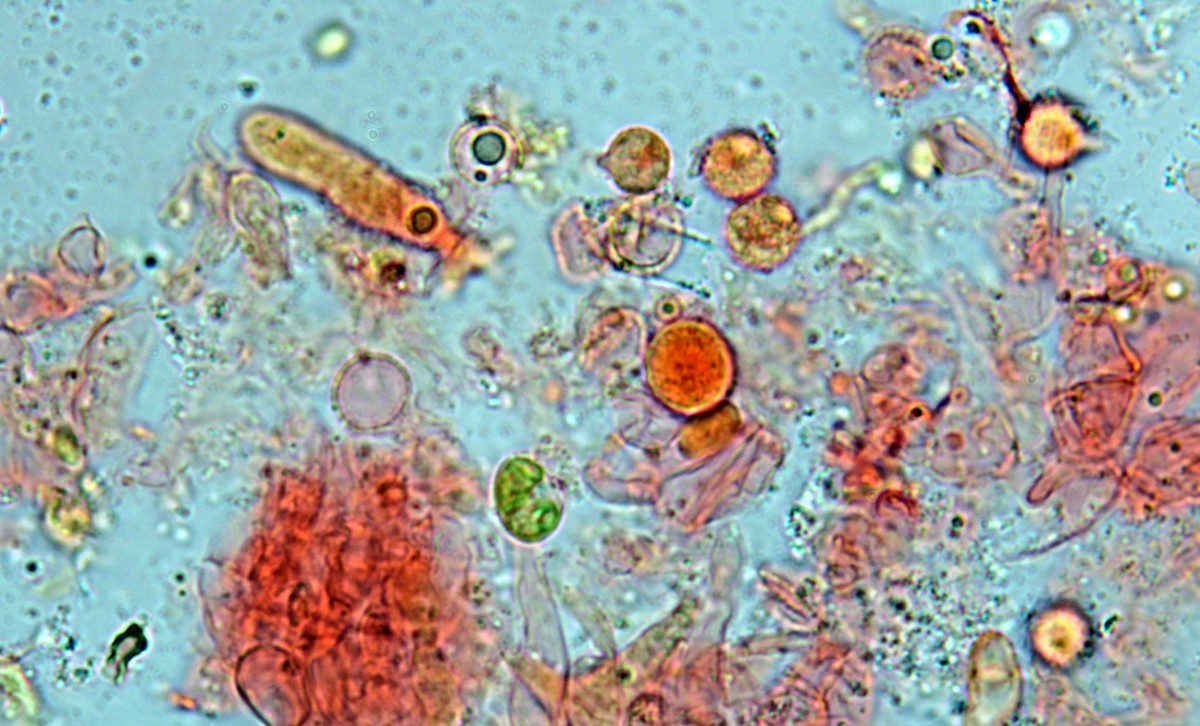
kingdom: Fungi
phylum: Basidiomycota
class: Tremellomycetes
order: Tremellales
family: Exidiaceae
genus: Basidiodendron
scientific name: Basidiodendron
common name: rækkebævresvamp
